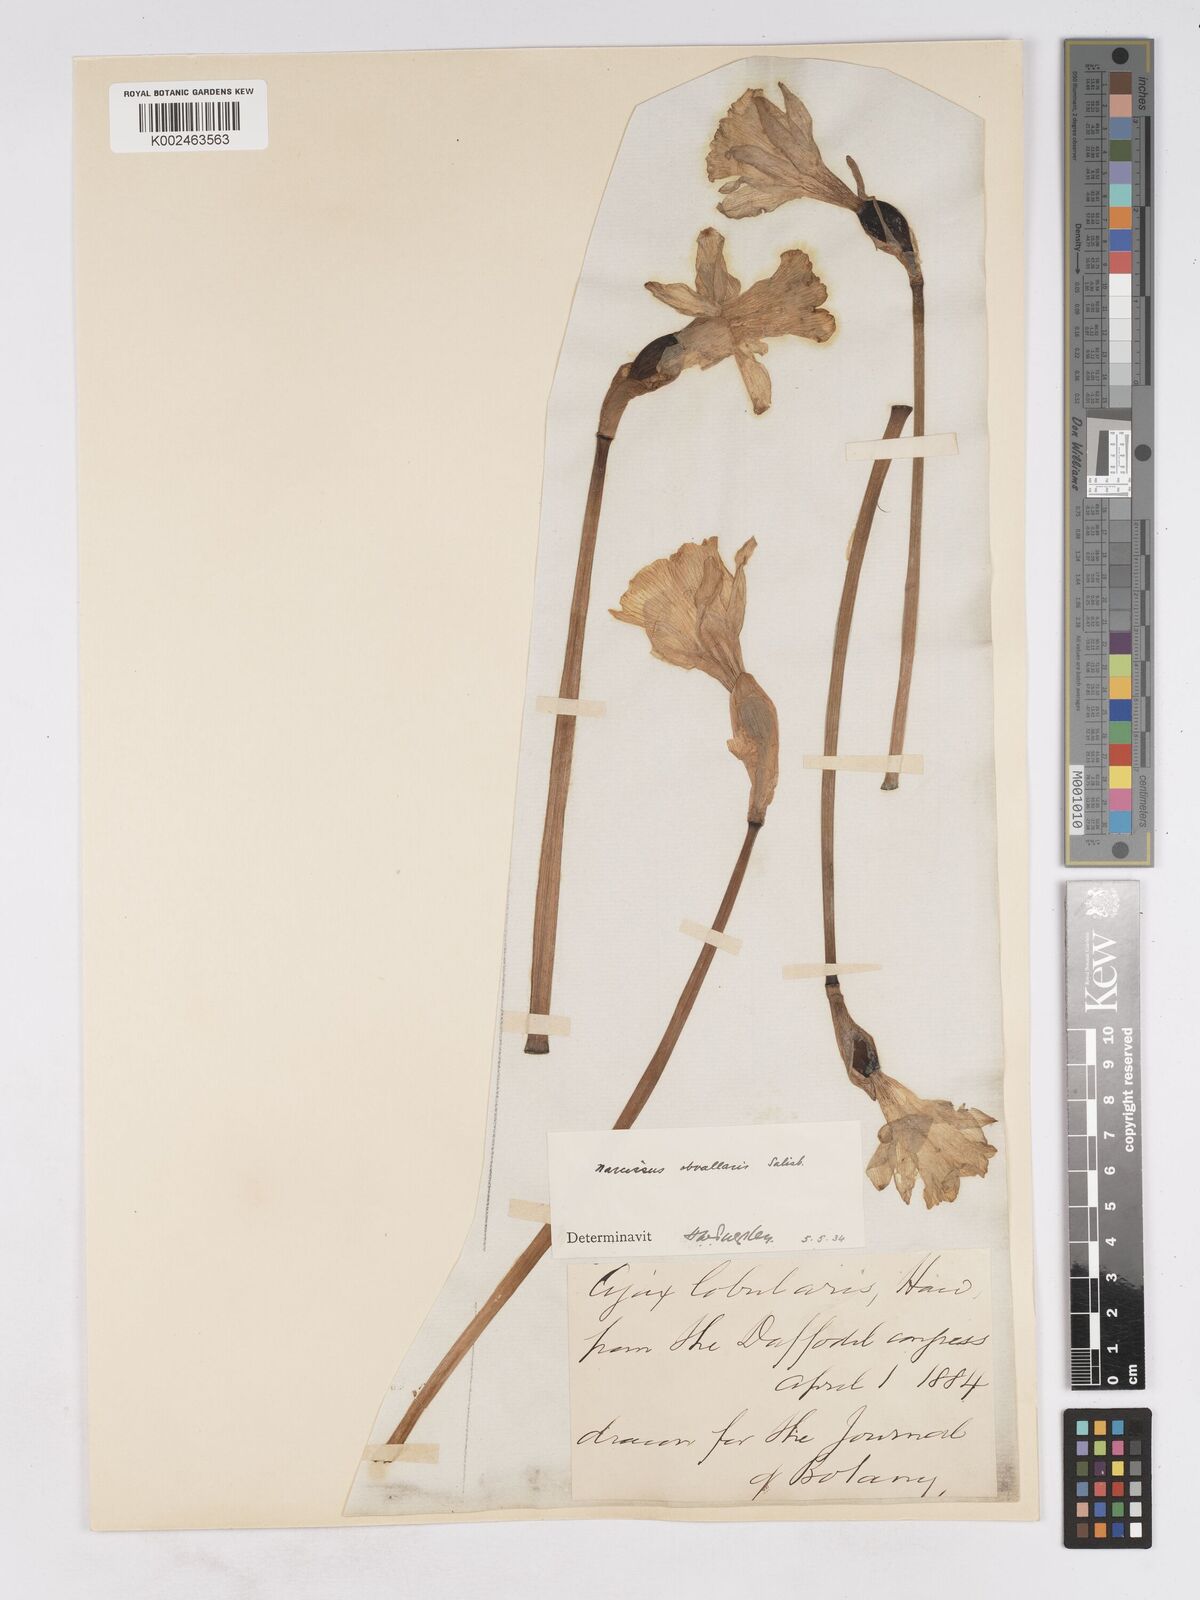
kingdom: Plantae
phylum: Tracheophyta
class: Liliopsida
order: Asparagales
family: Amaryllidaceae
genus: Narcissus
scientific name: Narcissus hispanicus
